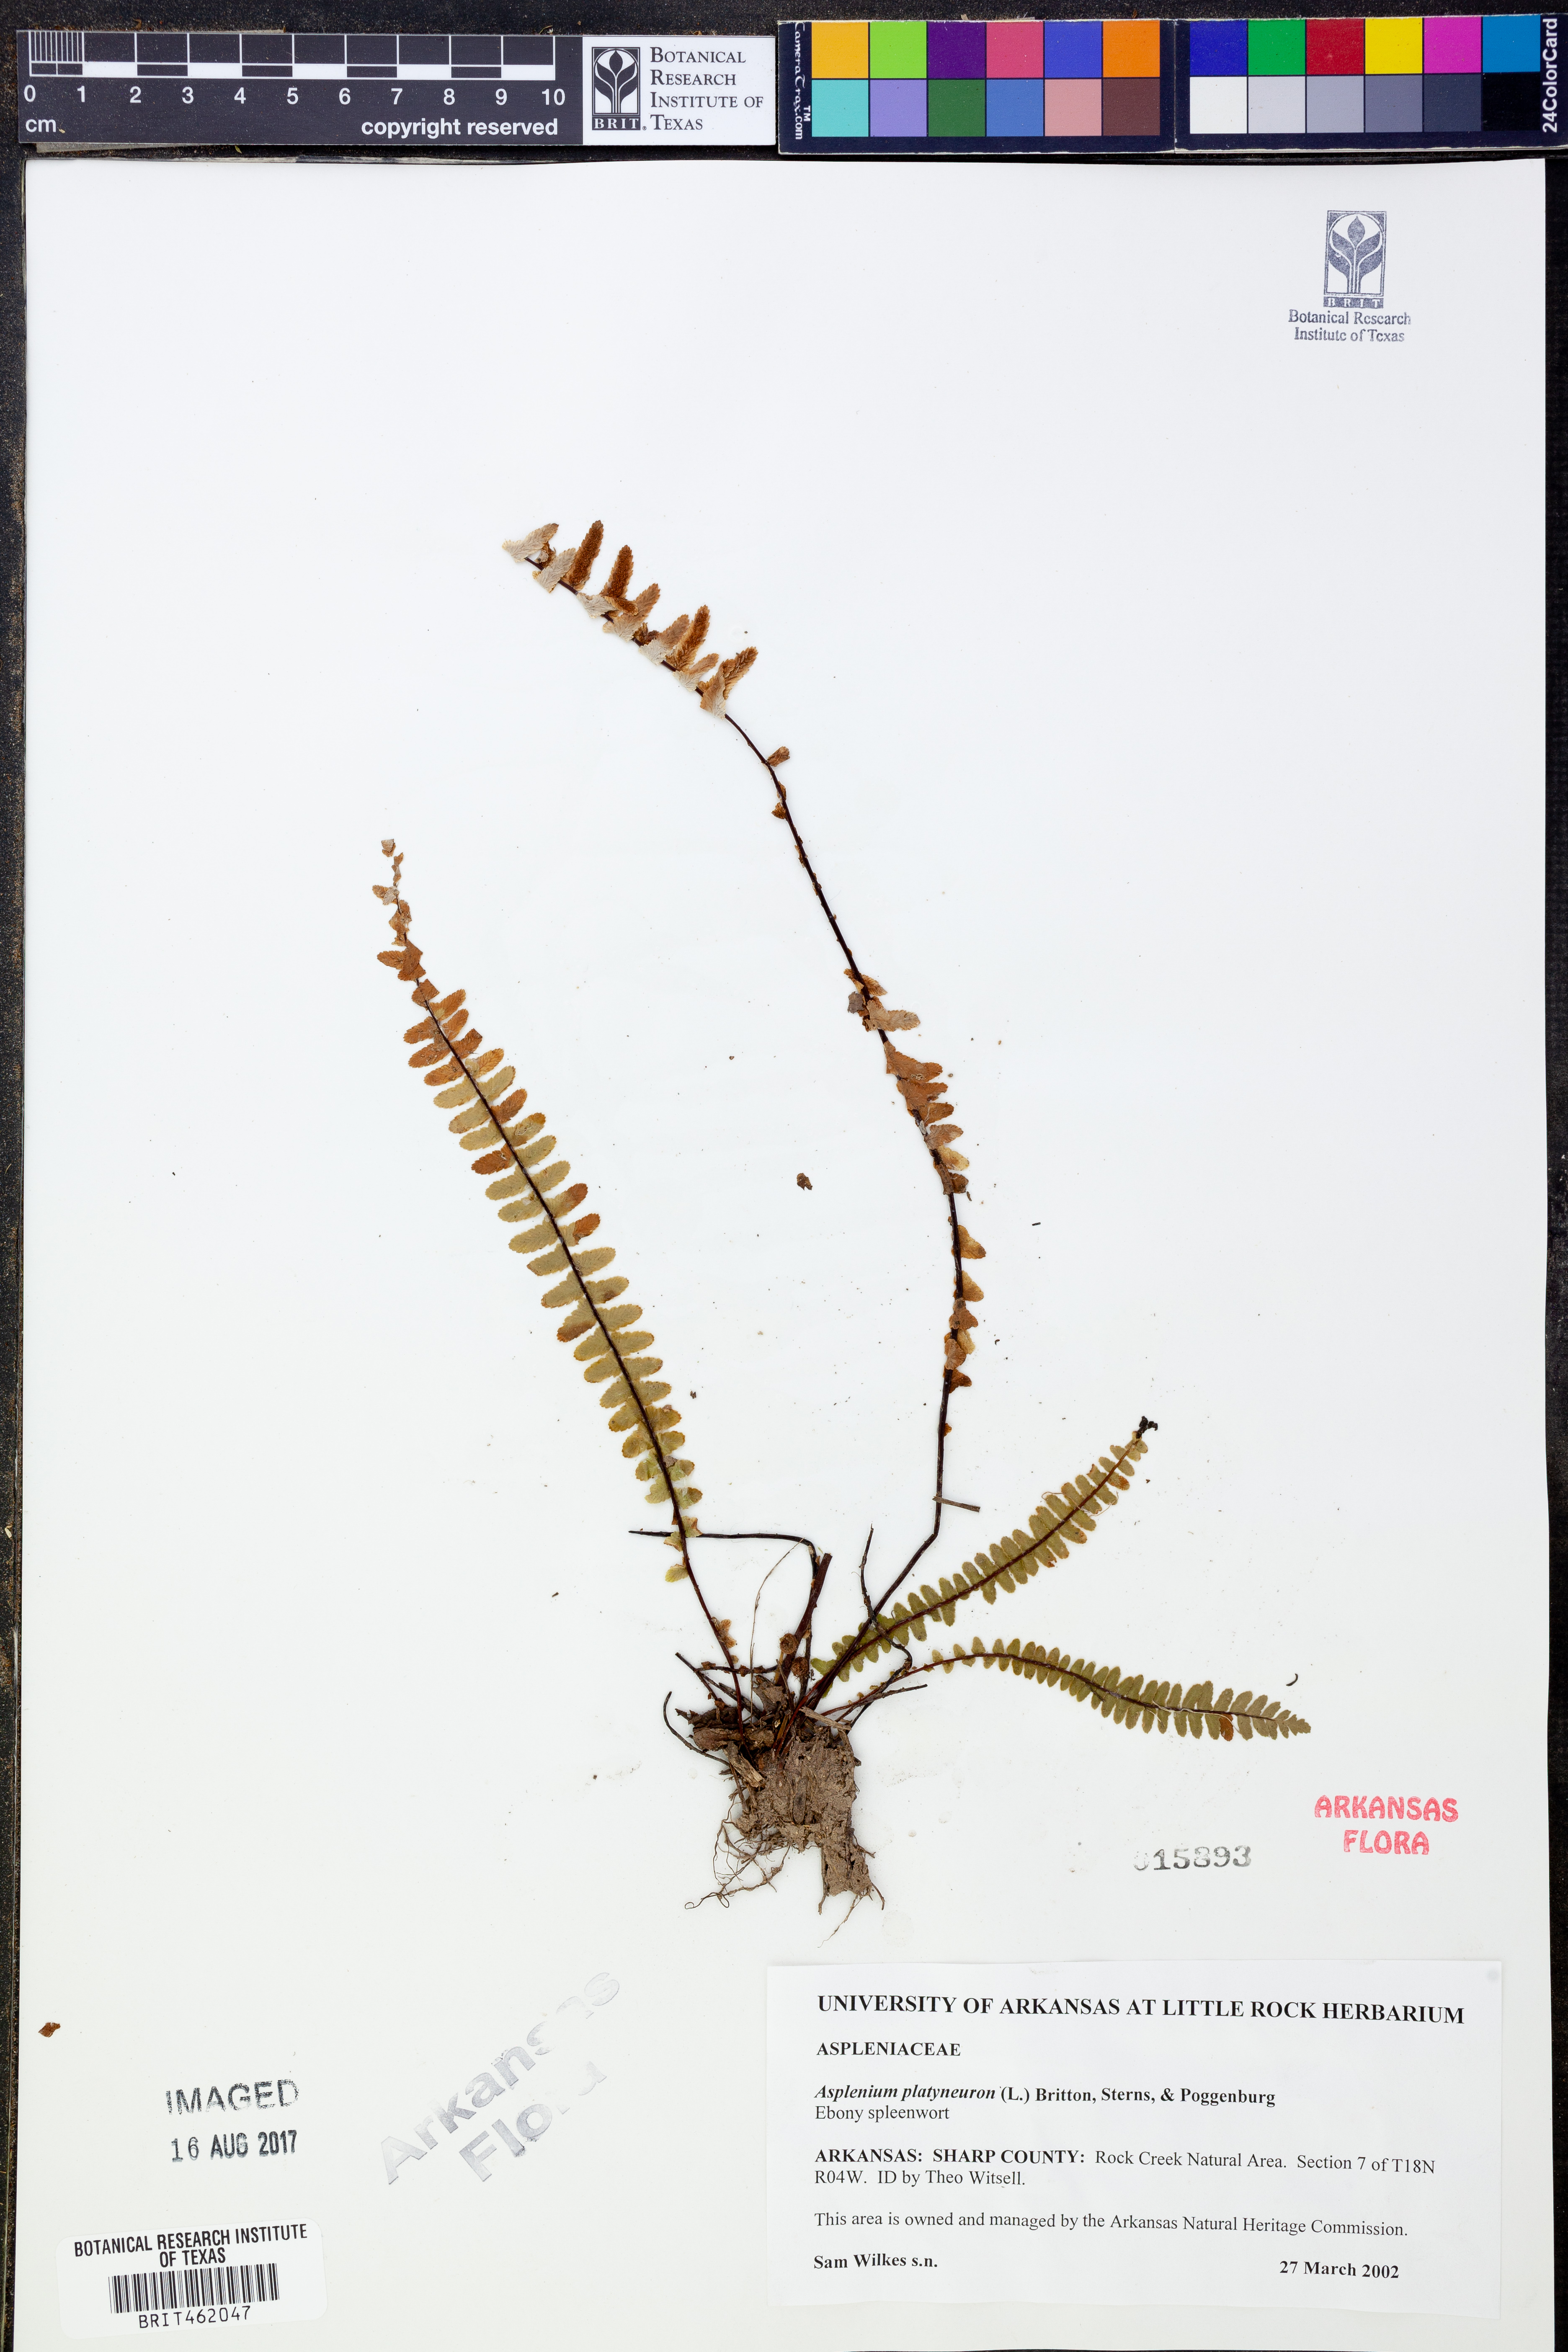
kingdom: Plantae
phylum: Tracheophyta
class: Polypodiopsida
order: Polypodiales
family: Aspleniaceae
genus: Asplenium
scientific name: Asplenium platyneuron
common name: Ebony spleenwort
